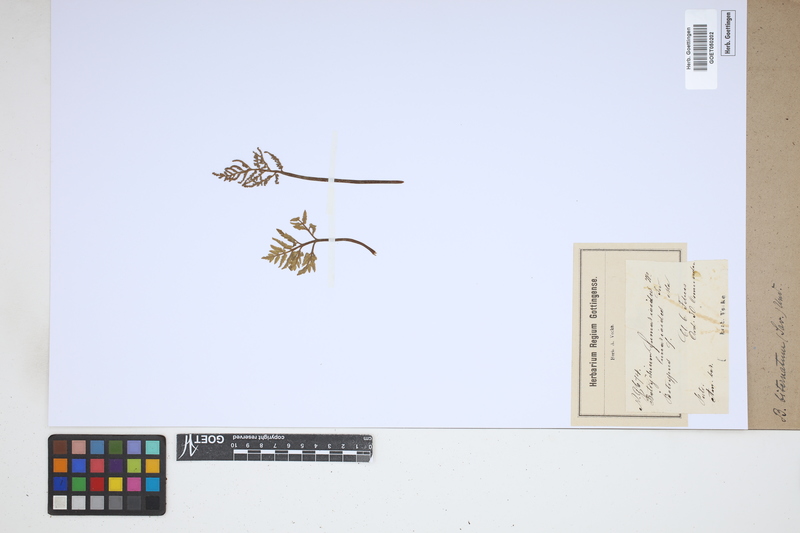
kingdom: Plantae
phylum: Tracheophyta
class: Polypodiopsida
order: Ophioglossales
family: Ophioglossaceae
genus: Sceptridium
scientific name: Sceptridium biternatum
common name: Sparse-lobed grapefern
